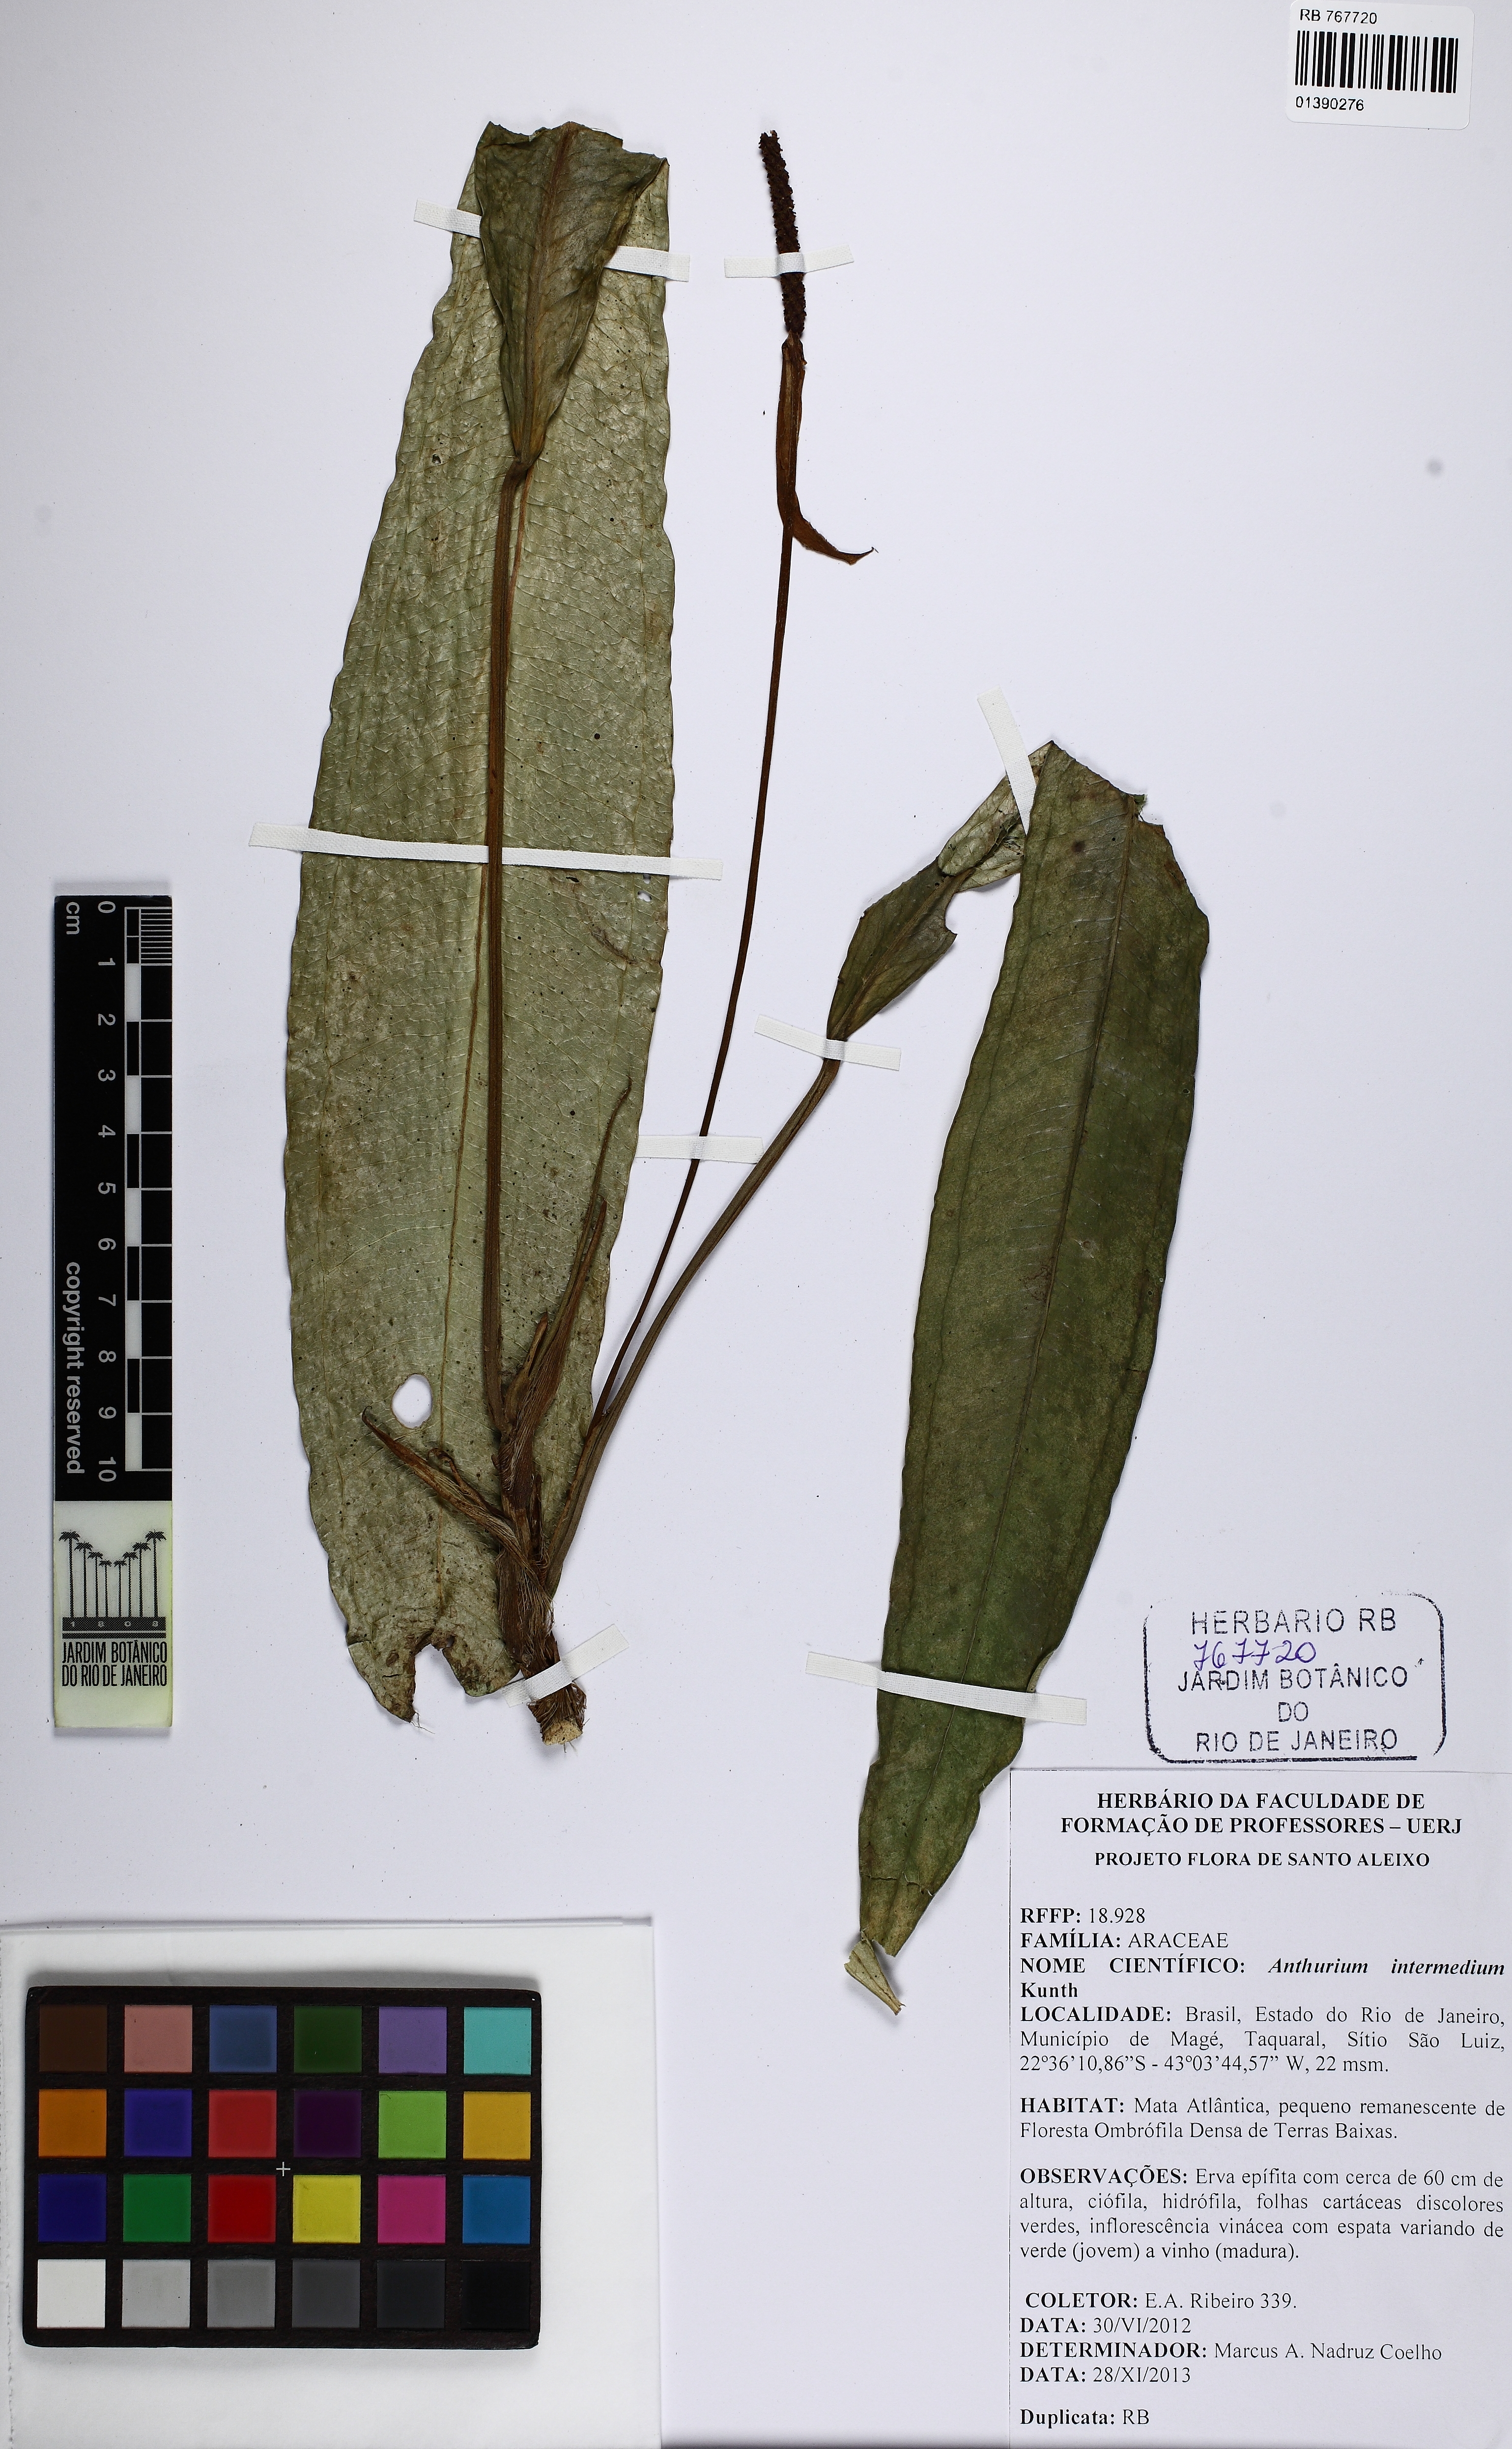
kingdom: Plantae
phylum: Tracheophyta
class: Liliopsida
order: Alismatales
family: Araceae
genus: Anthurium
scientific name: Anthurium intermedium
